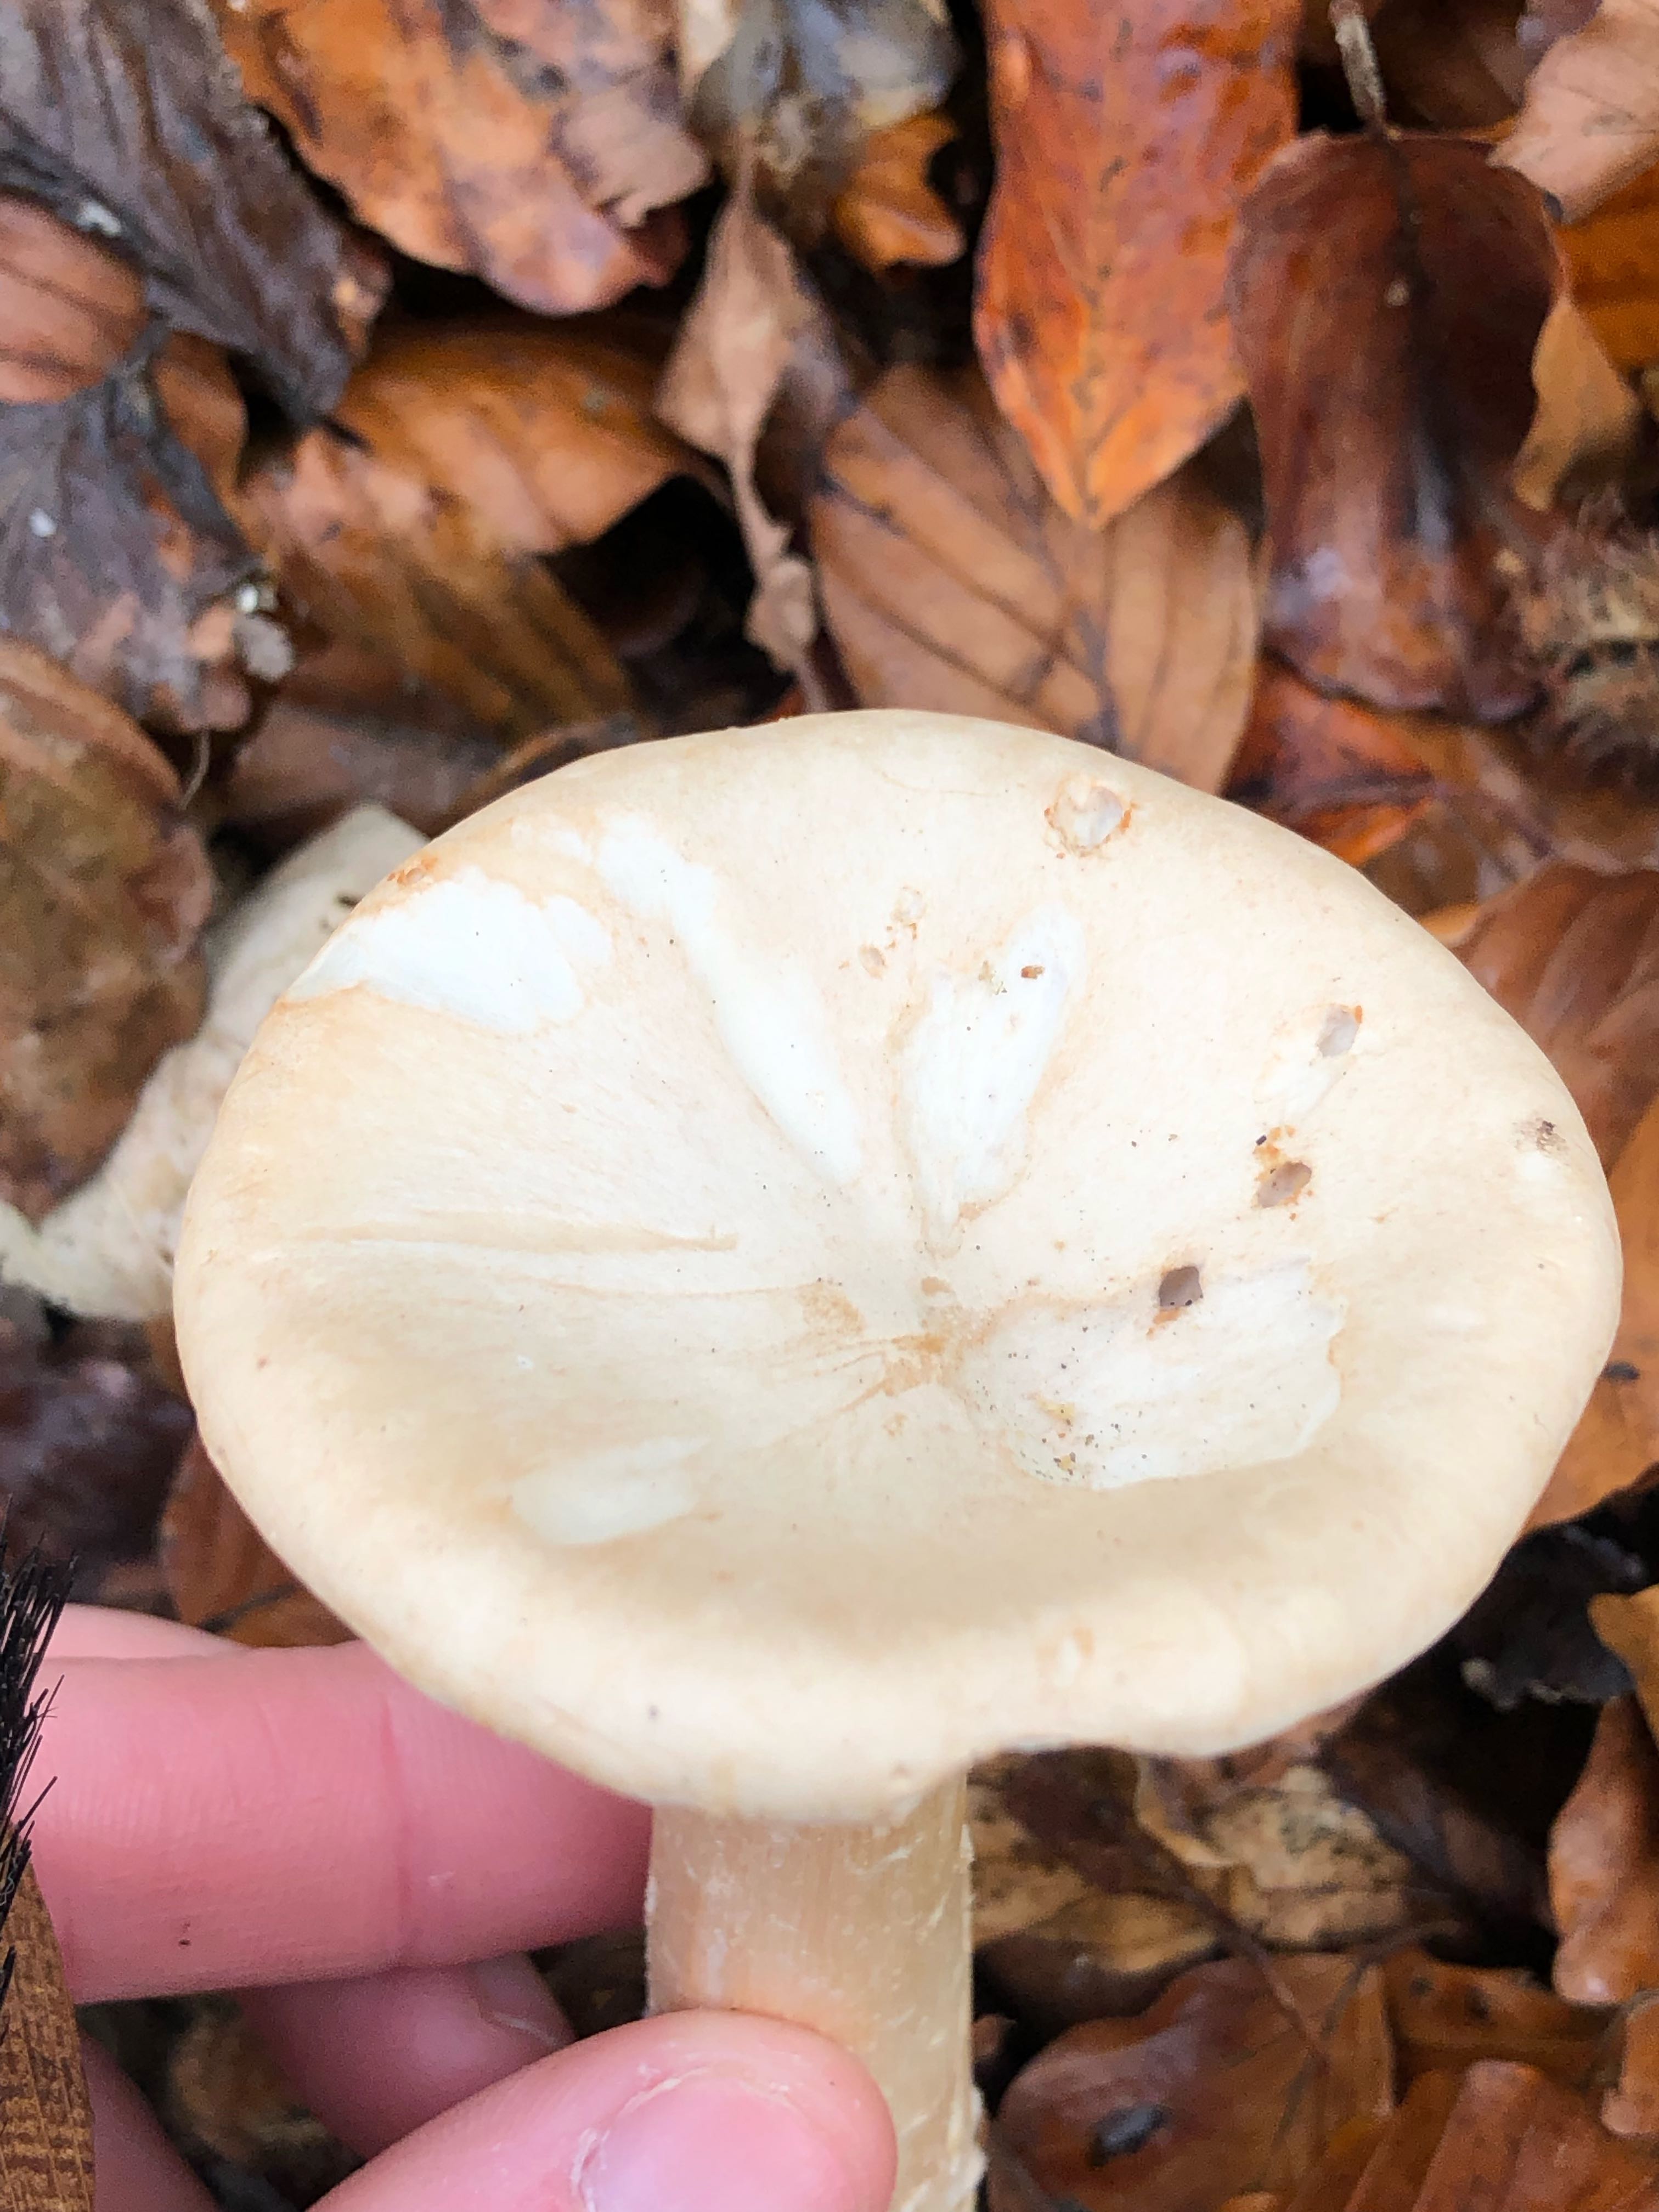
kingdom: Fungi
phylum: Basidiomycota
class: Agaricomycetes
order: Agaricales
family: Tricholomataceae
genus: Infundibulicybe
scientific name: Infundibulicybe geotropa
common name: stor tragthat
